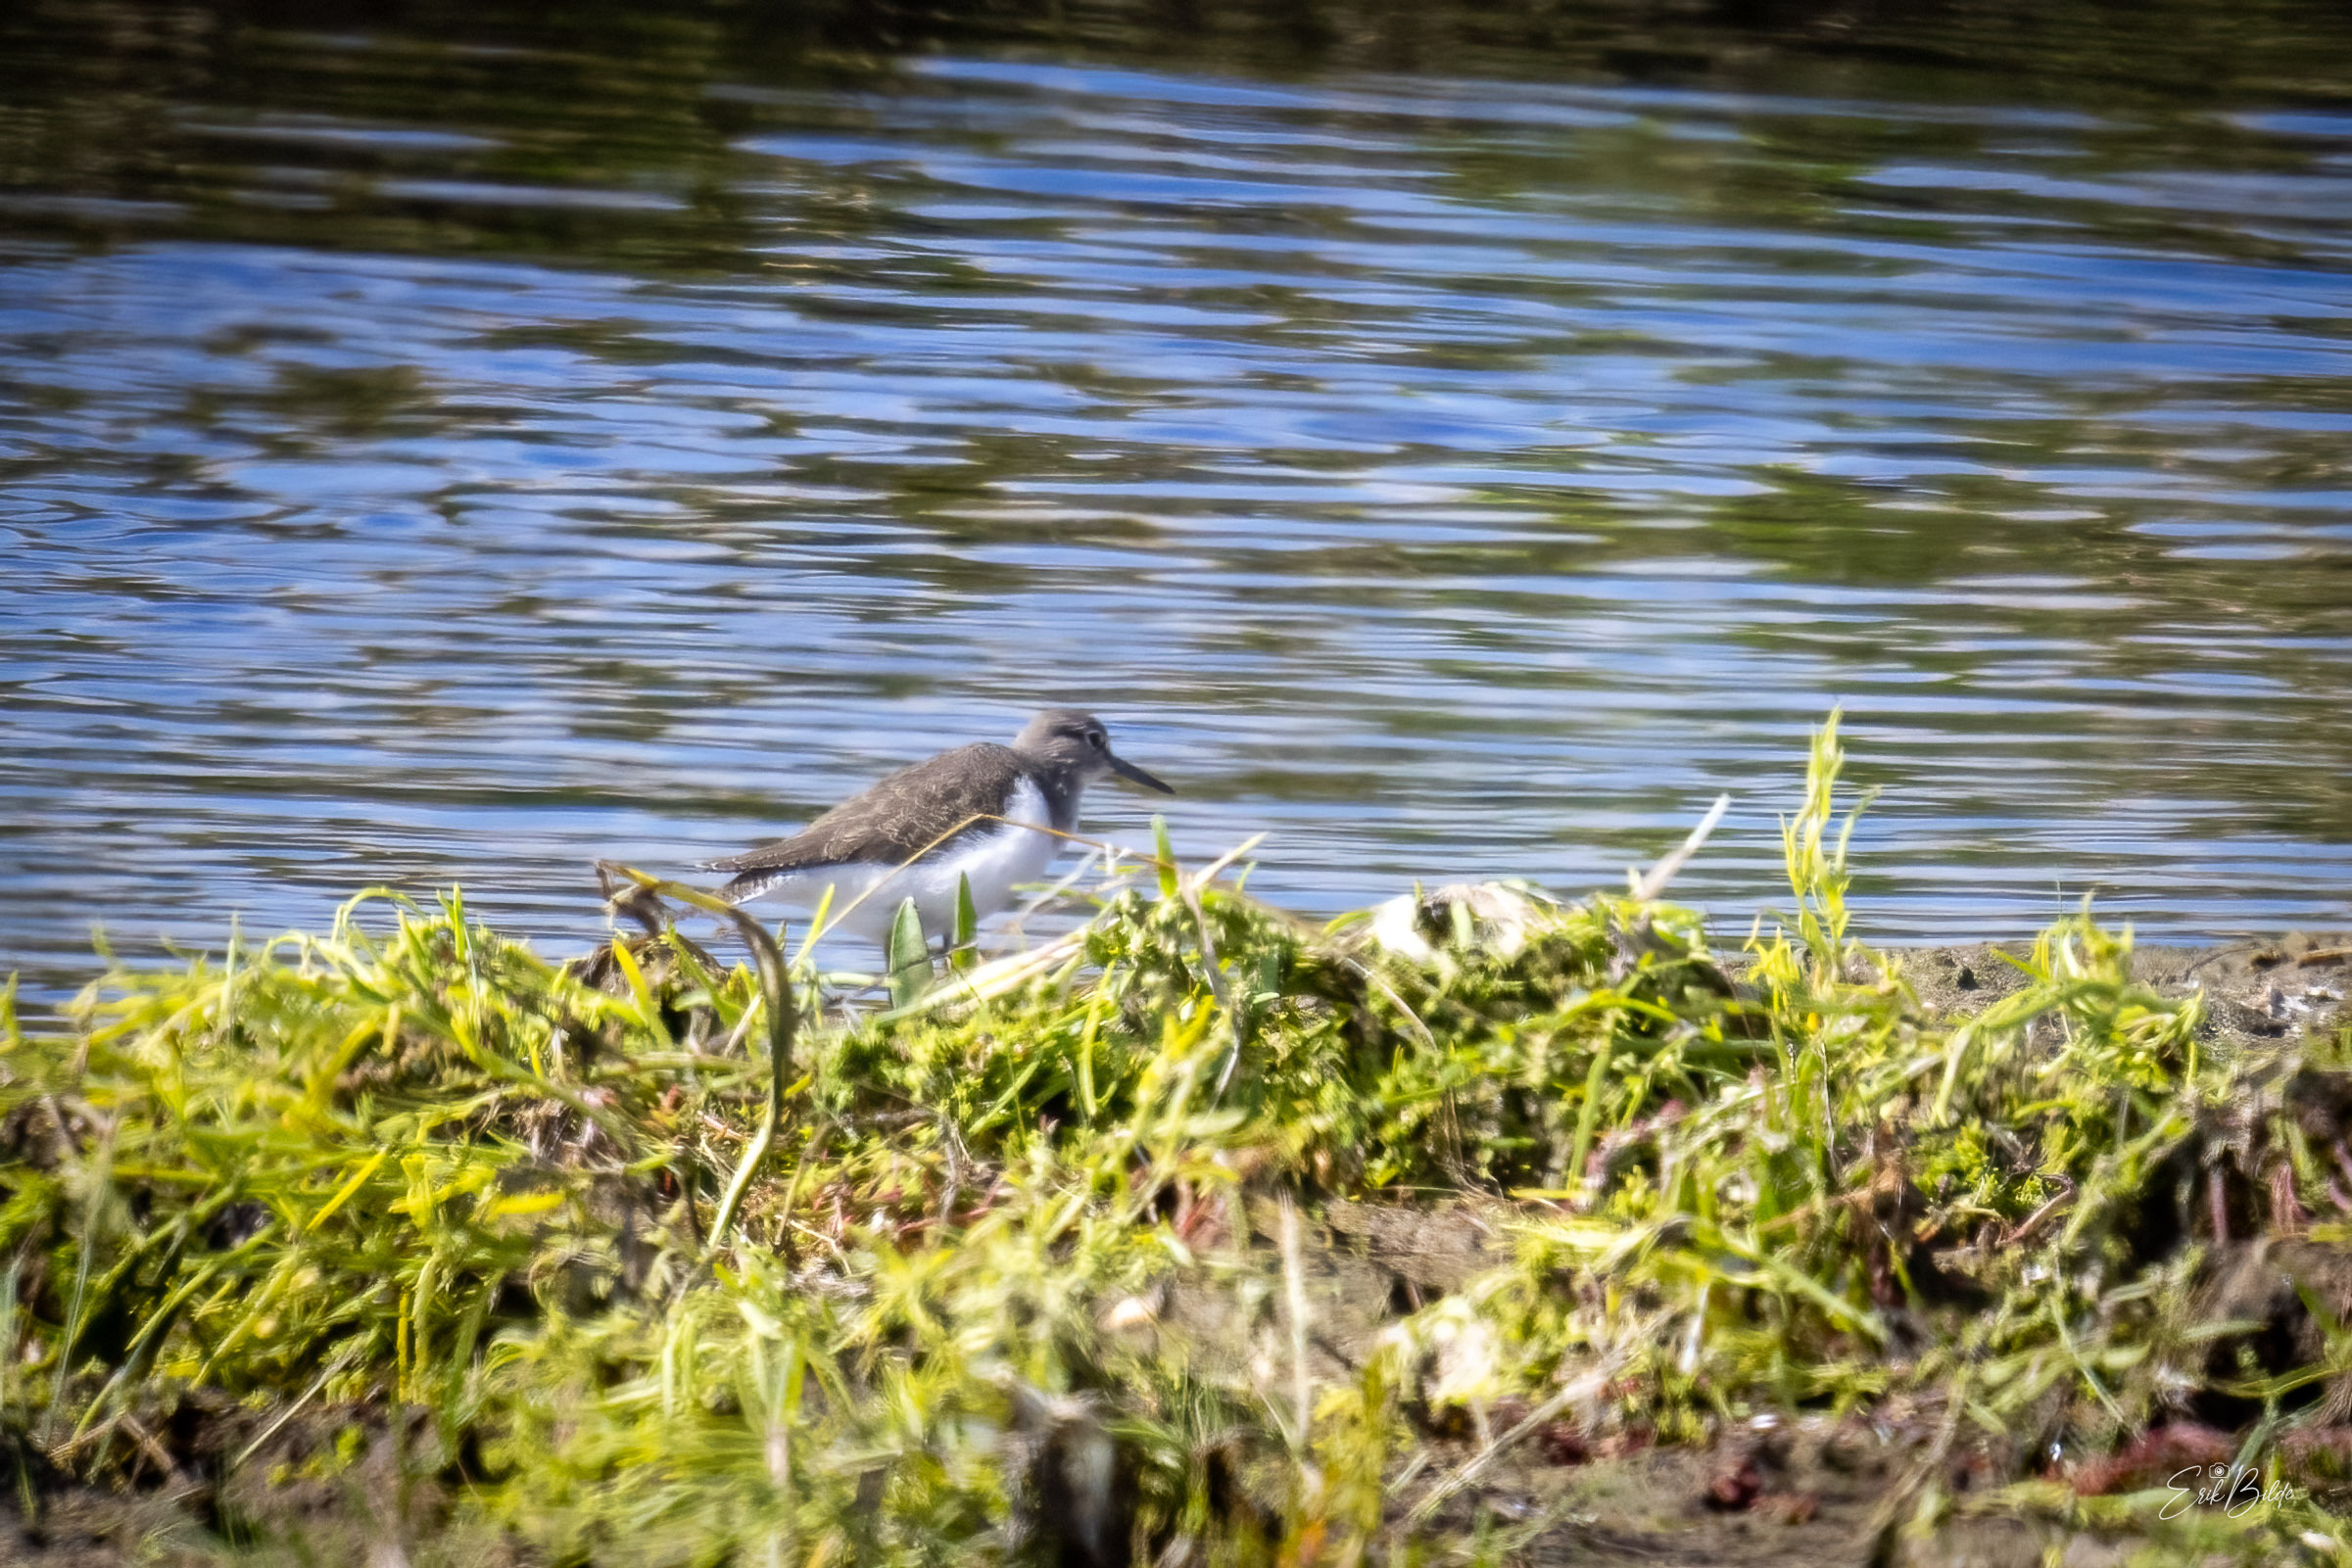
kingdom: Animalia
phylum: Chordata
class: Aves
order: Charadriiformes
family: Scolopacidae
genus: Actitis
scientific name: Actitis hypoleucos
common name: Mudderklire
